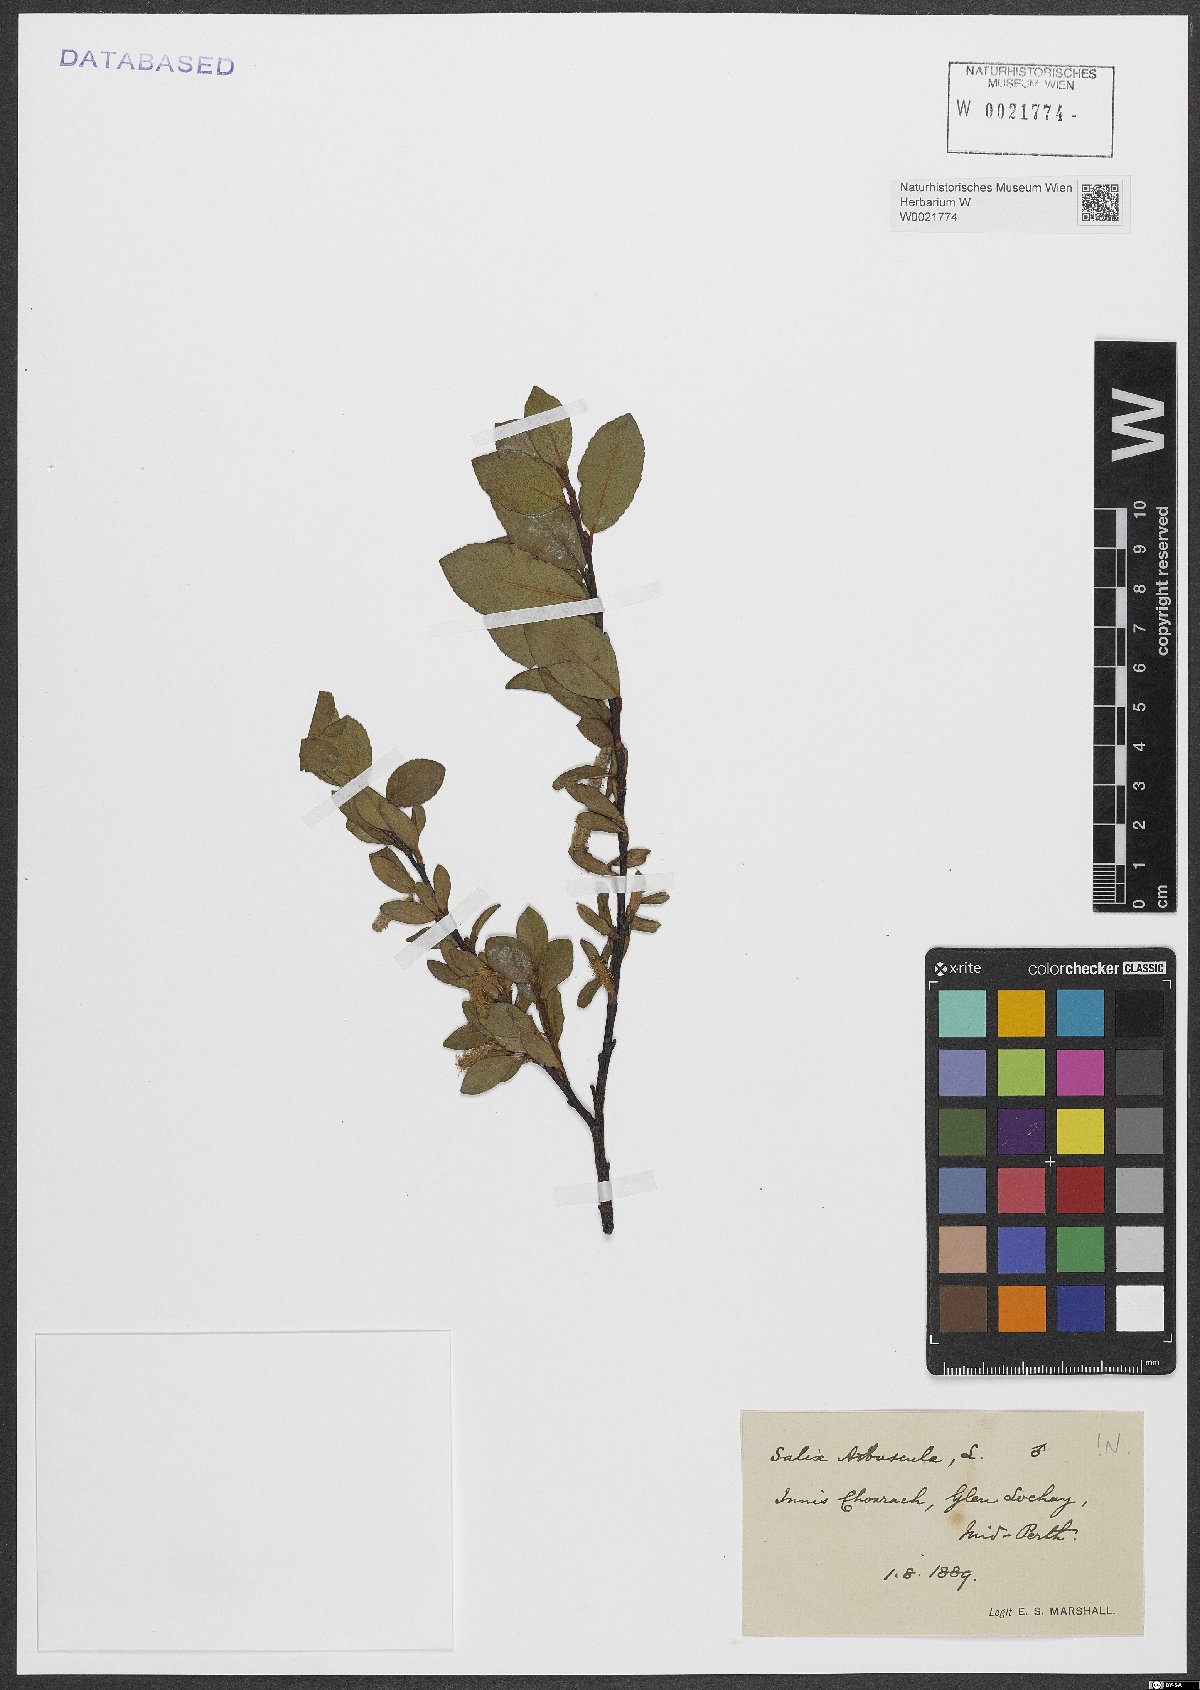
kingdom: Plantae
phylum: Tracheophyta
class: Magnoliopsida
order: Malpighiales
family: Salicaceae
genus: Salix
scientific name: Salix arbuscula
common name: Mountain willow
